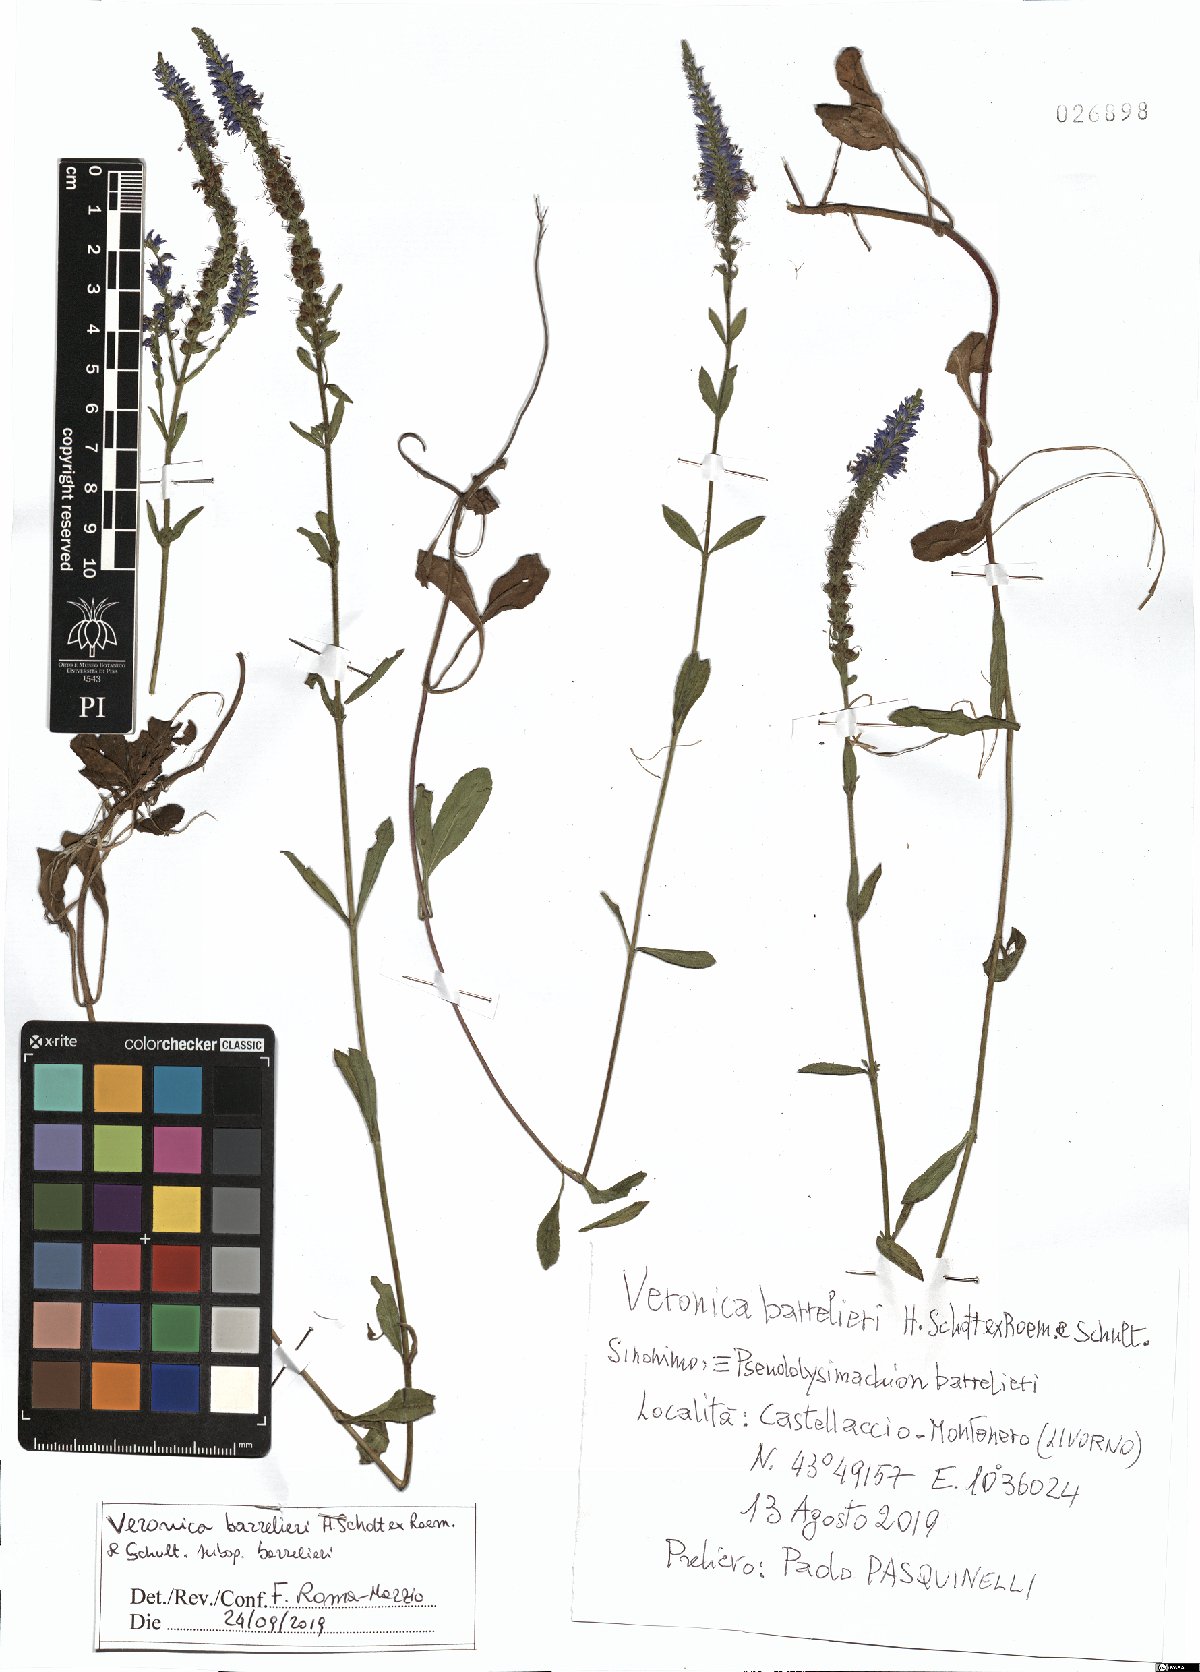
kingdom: Plantae
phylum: Tracheophyta
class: Magnoliopsida
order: Lamiales
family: Plantaginaceae
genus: Veronica
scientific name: Veronica barrelieri
